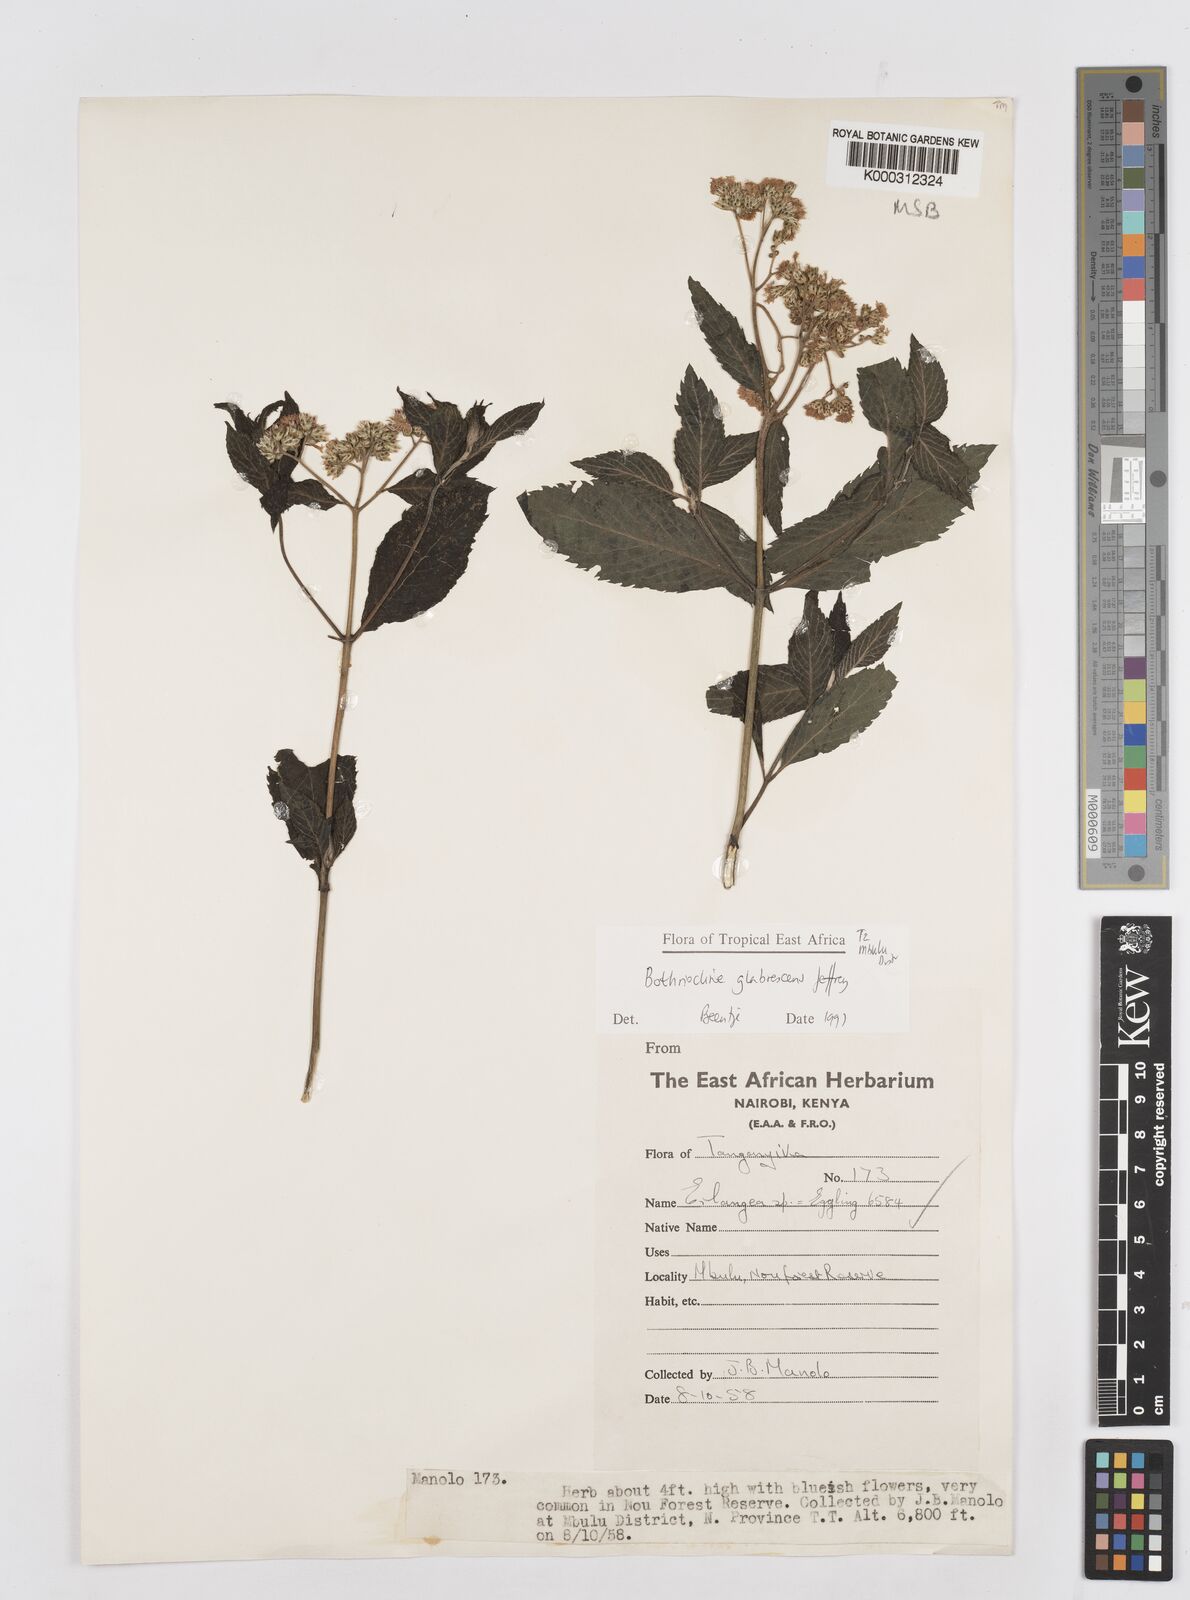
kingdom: Plantae
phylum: Tracheophyta
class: Magnoliopsida
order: Asterales
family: Asteraceae
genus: Bothriocline
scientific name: Bothriocline glabrescens
